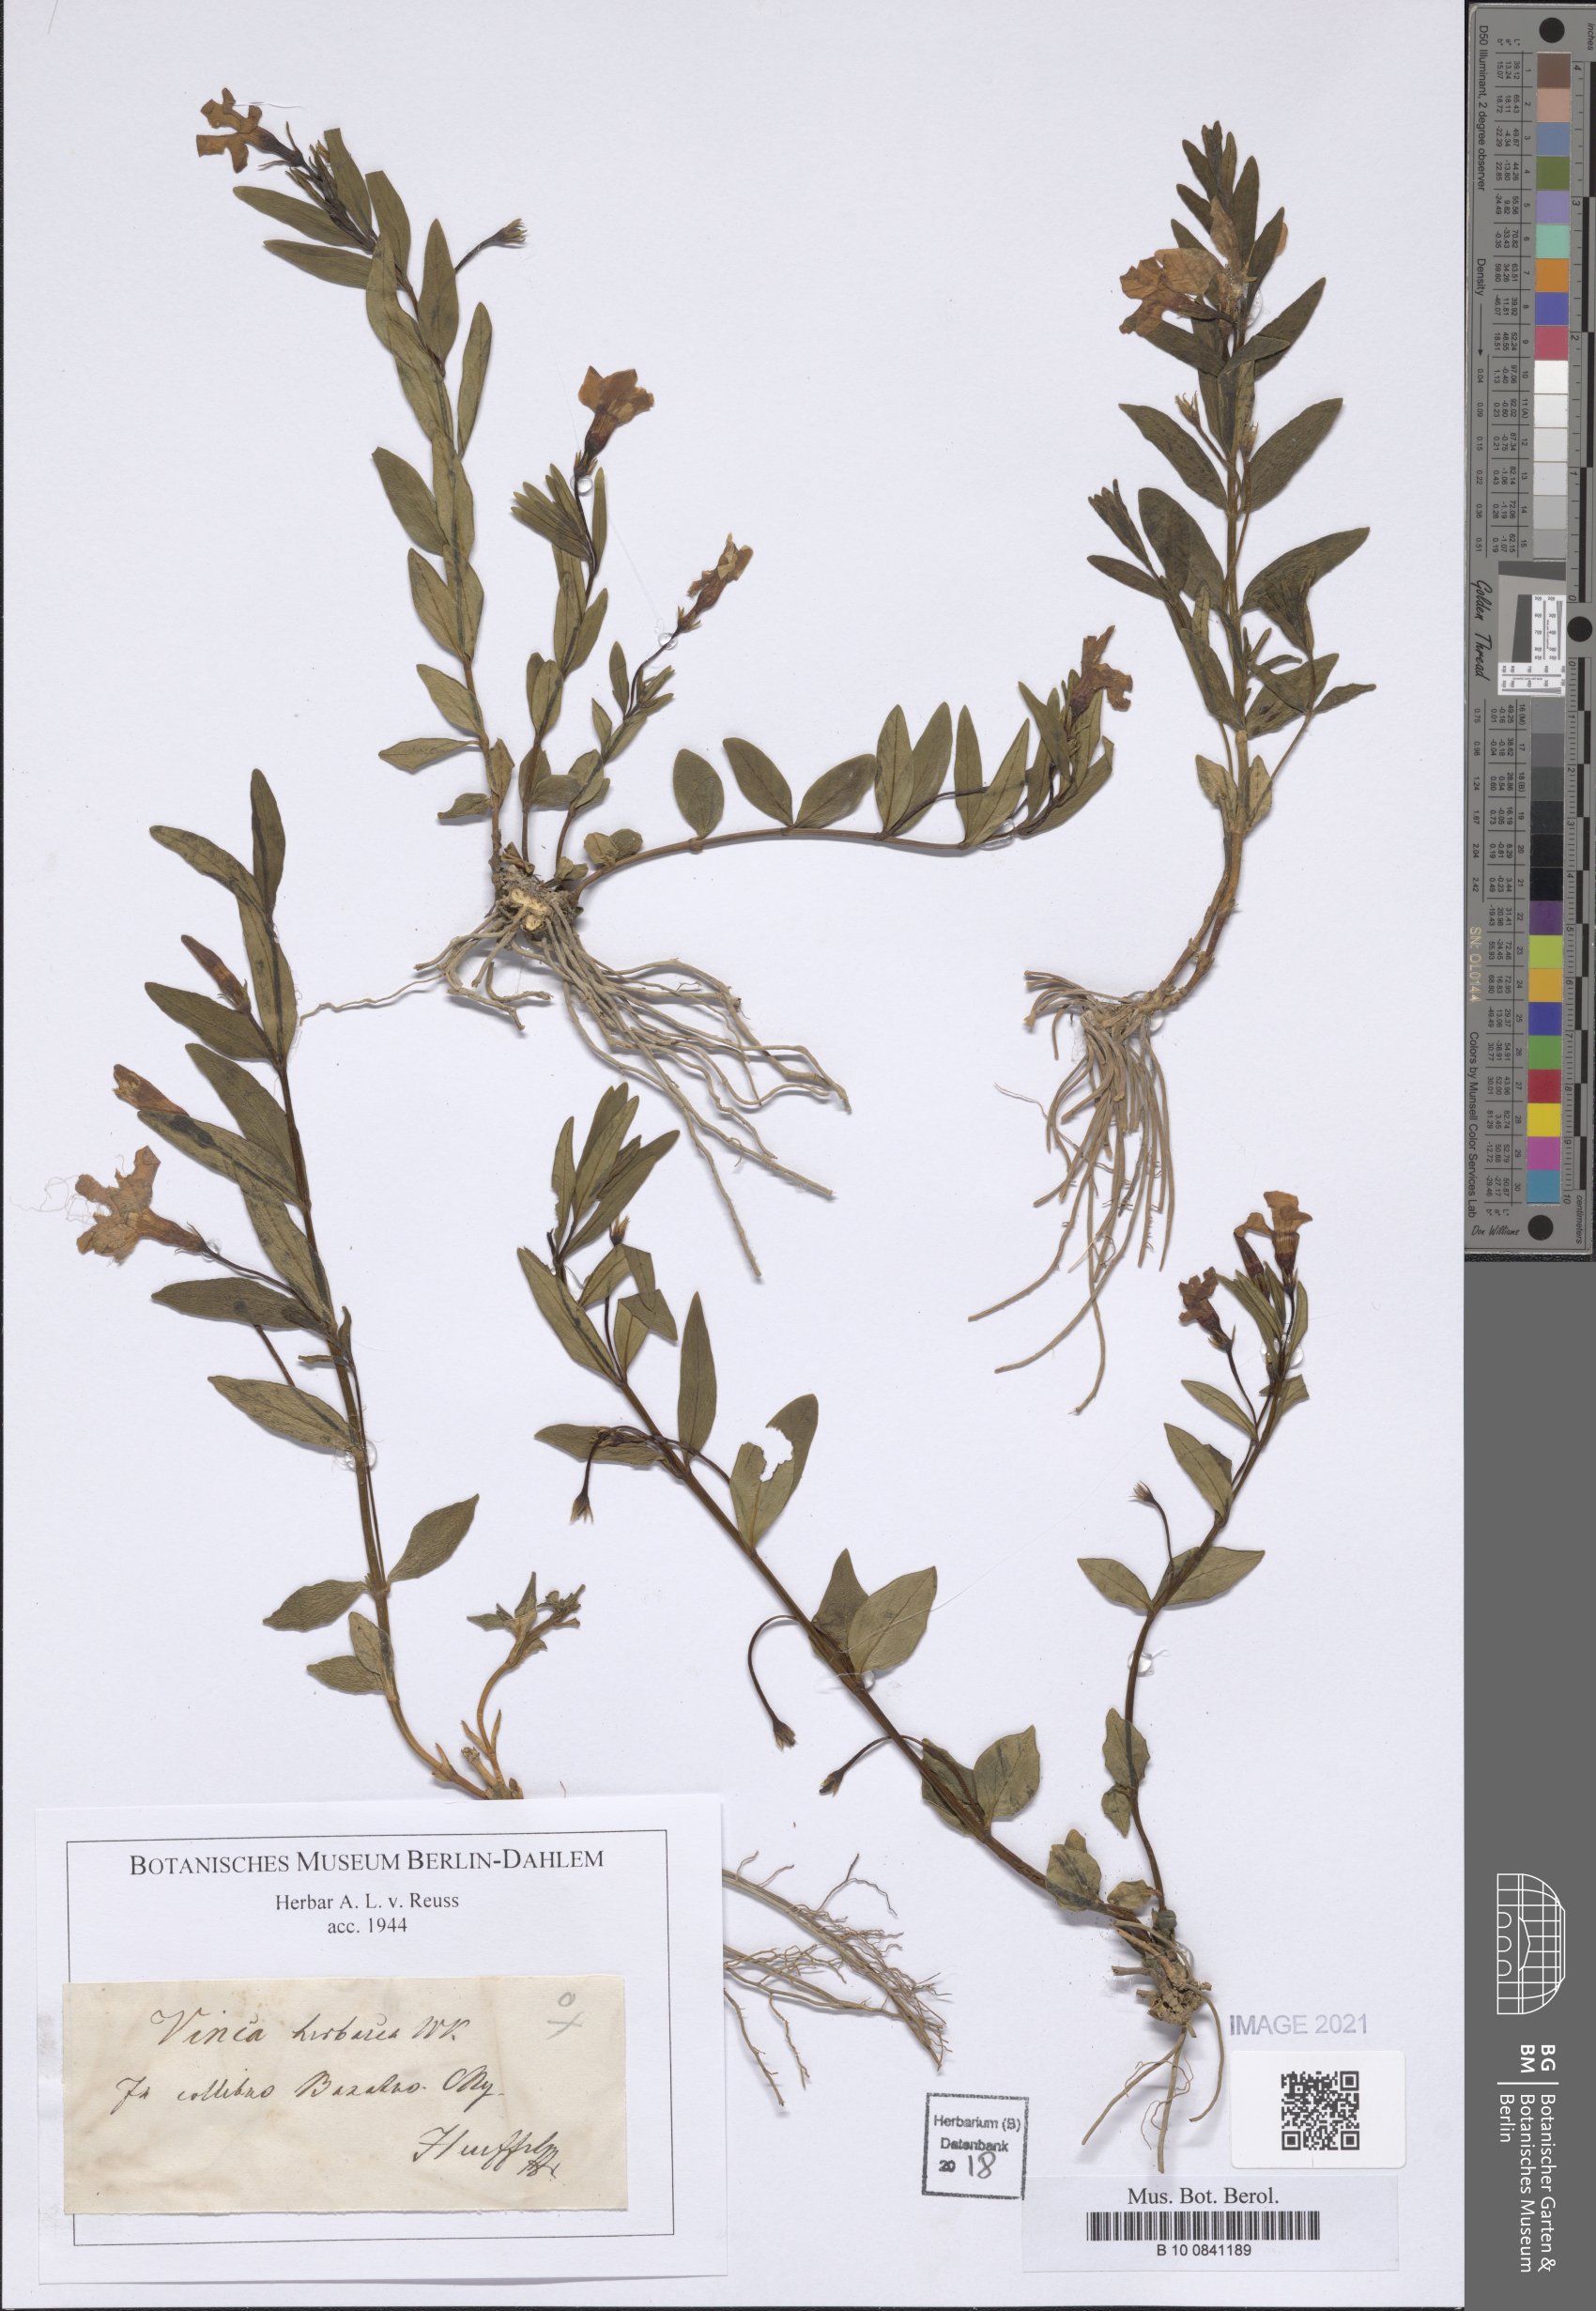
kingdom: Plantae
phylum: Tracheophyta
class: Magnoliopsida
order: Gentianales
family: Apocynaceae
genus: Vinca
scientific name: Vinca herbacea
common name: Herbaceous periwinkle
